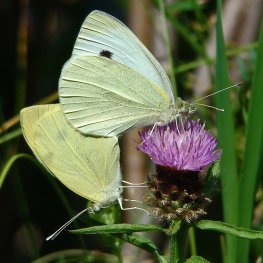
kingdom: Animalia
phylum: Arthropoda
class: Insecta
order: Lepidoptera
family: Pieridae
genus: Pieris
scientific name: Pieris rapae
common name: Cabbage White
